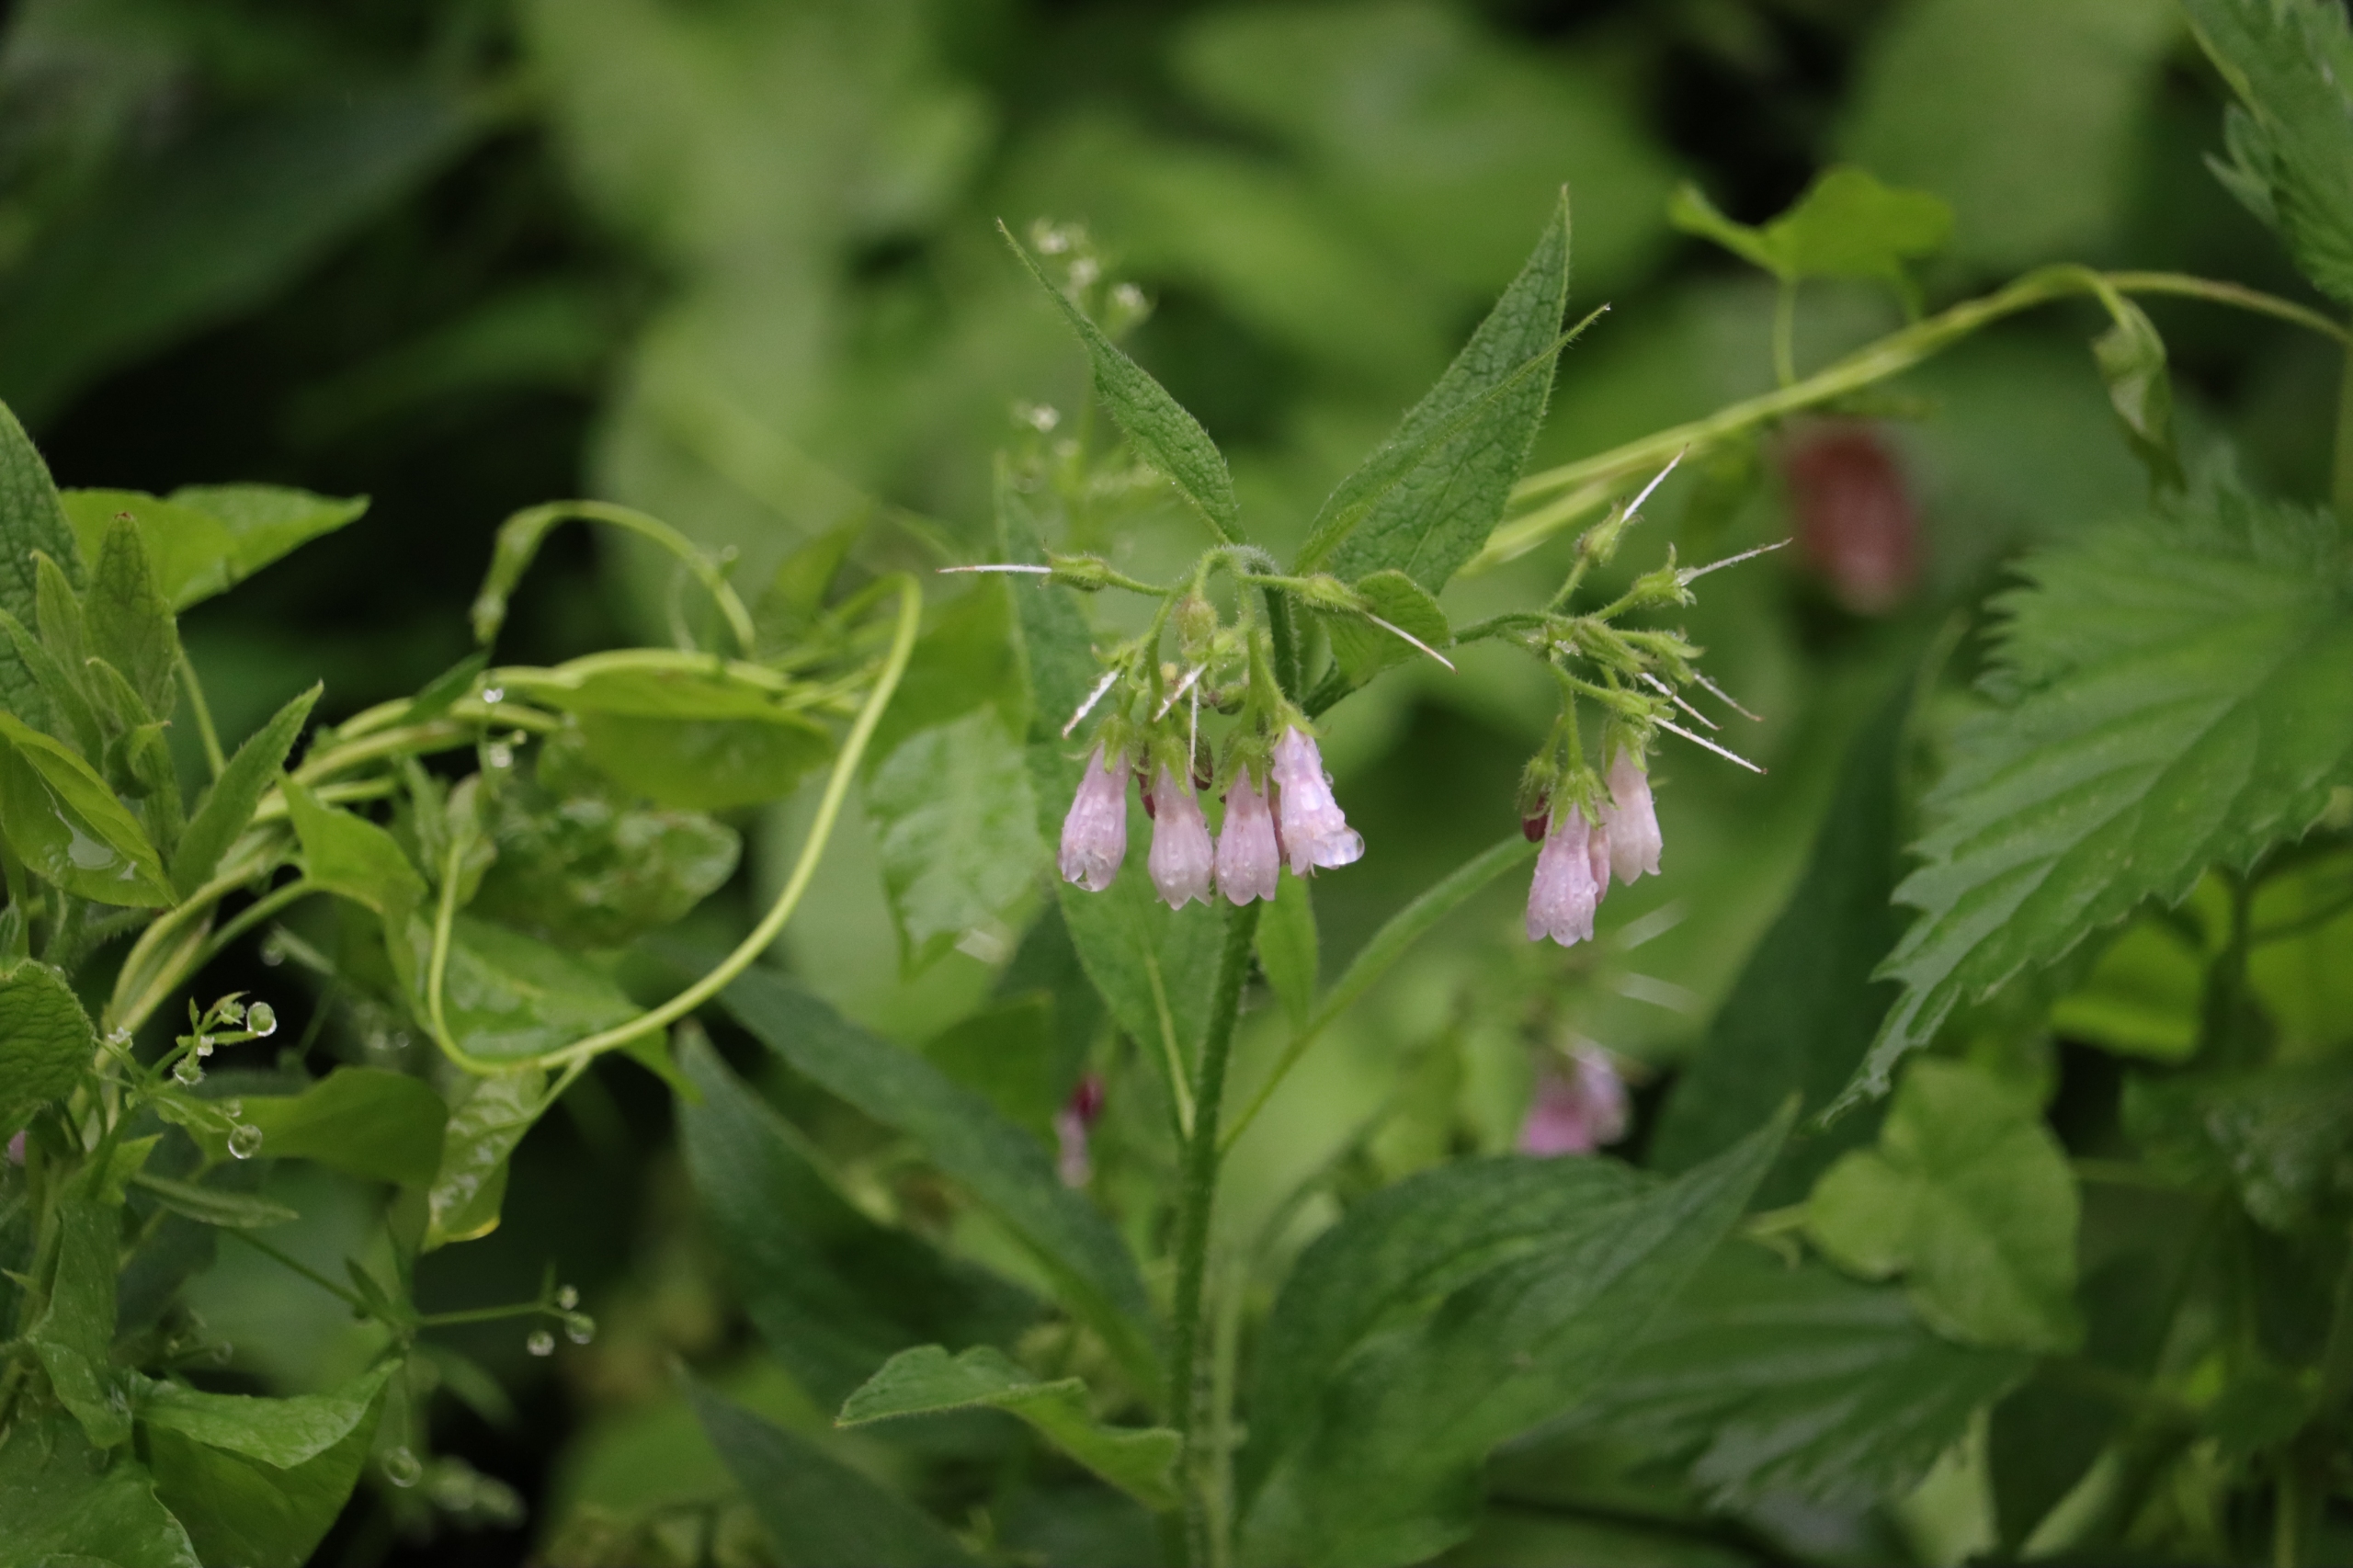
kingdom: Plantae
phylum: Tracheophyta
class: Magnoliopsida
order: Boraginales
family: Boraginaceae
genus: Symphytum
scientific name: Symphytum uplandicum
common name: Foder-kulsukker
